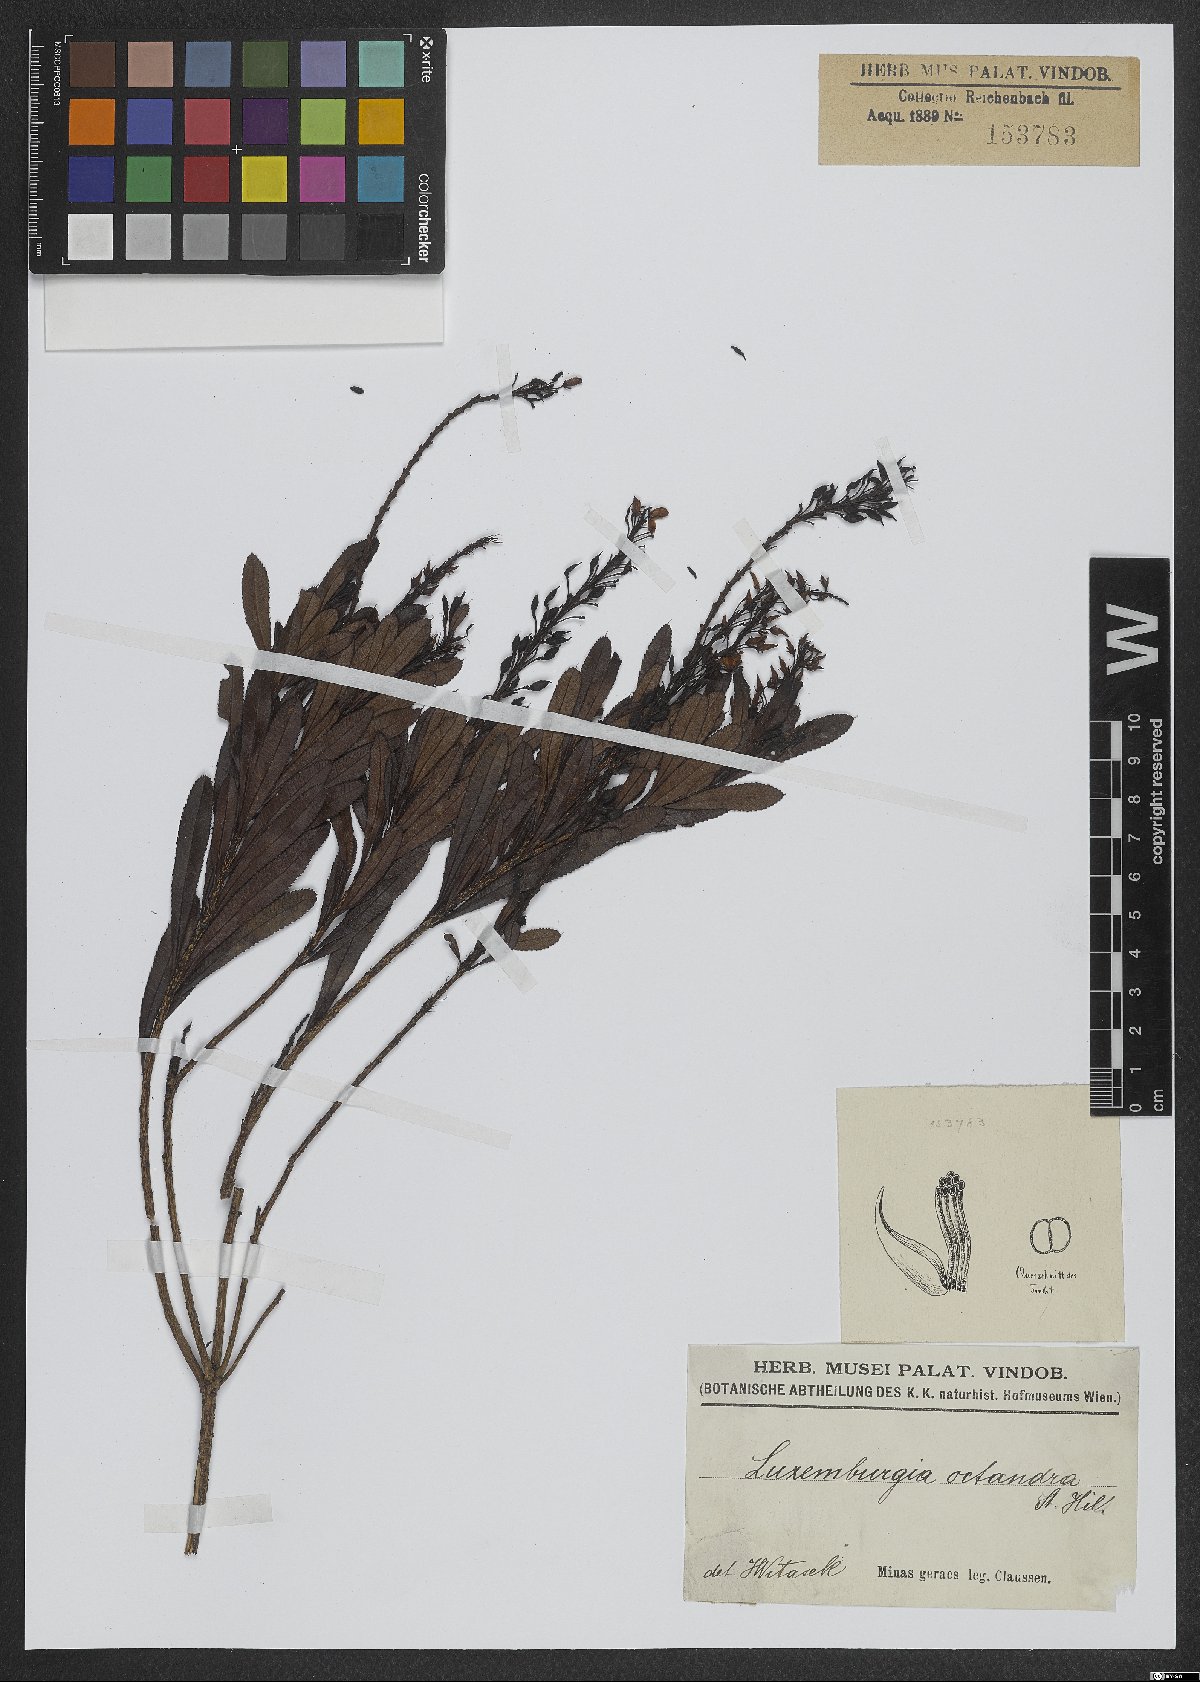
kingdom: Plantae
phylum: Tracheophyta
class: Magnoliopsida
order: Malpighiales
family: Ochnaceae
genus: Luxemburgia
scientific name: Luxemburgia octandra
